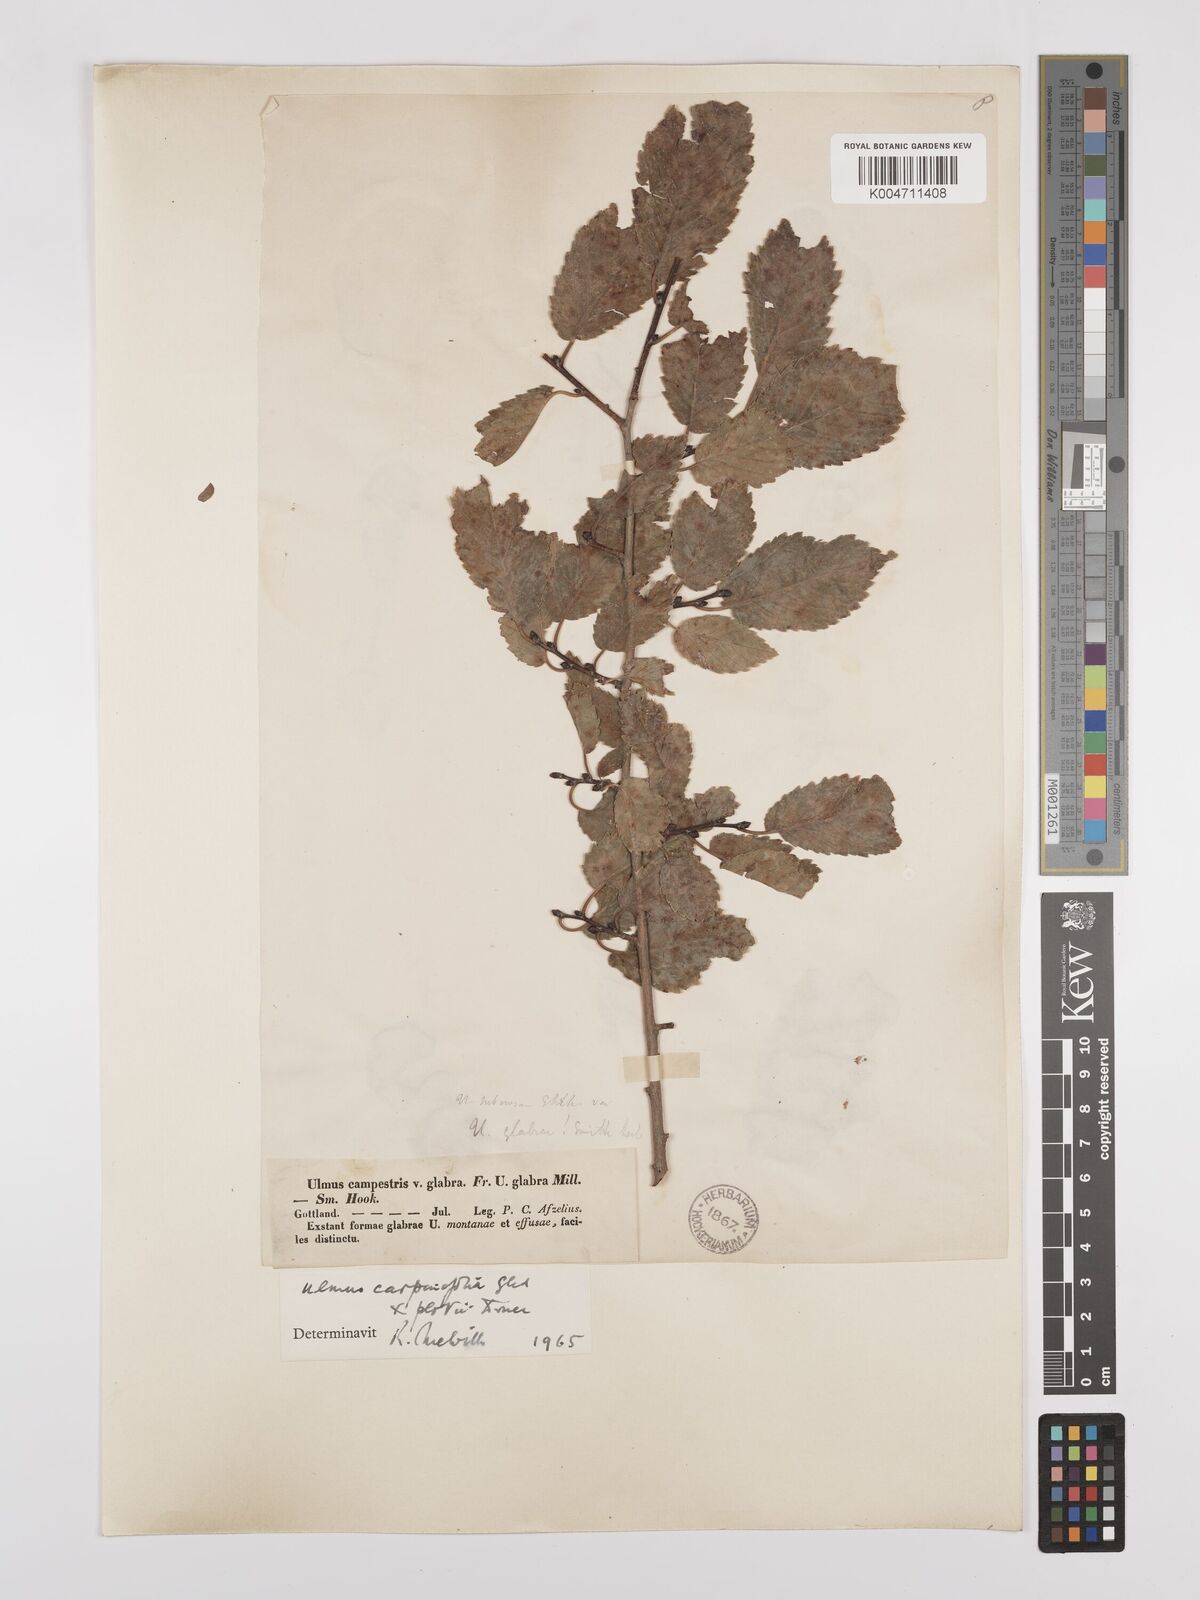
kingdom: Plantae
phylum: Tracheophyta
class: Magnoliopsida
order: Rosales
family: Ulmaceae
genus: Ulmus
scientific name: Ulmus minor
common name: Small-leaved elm
